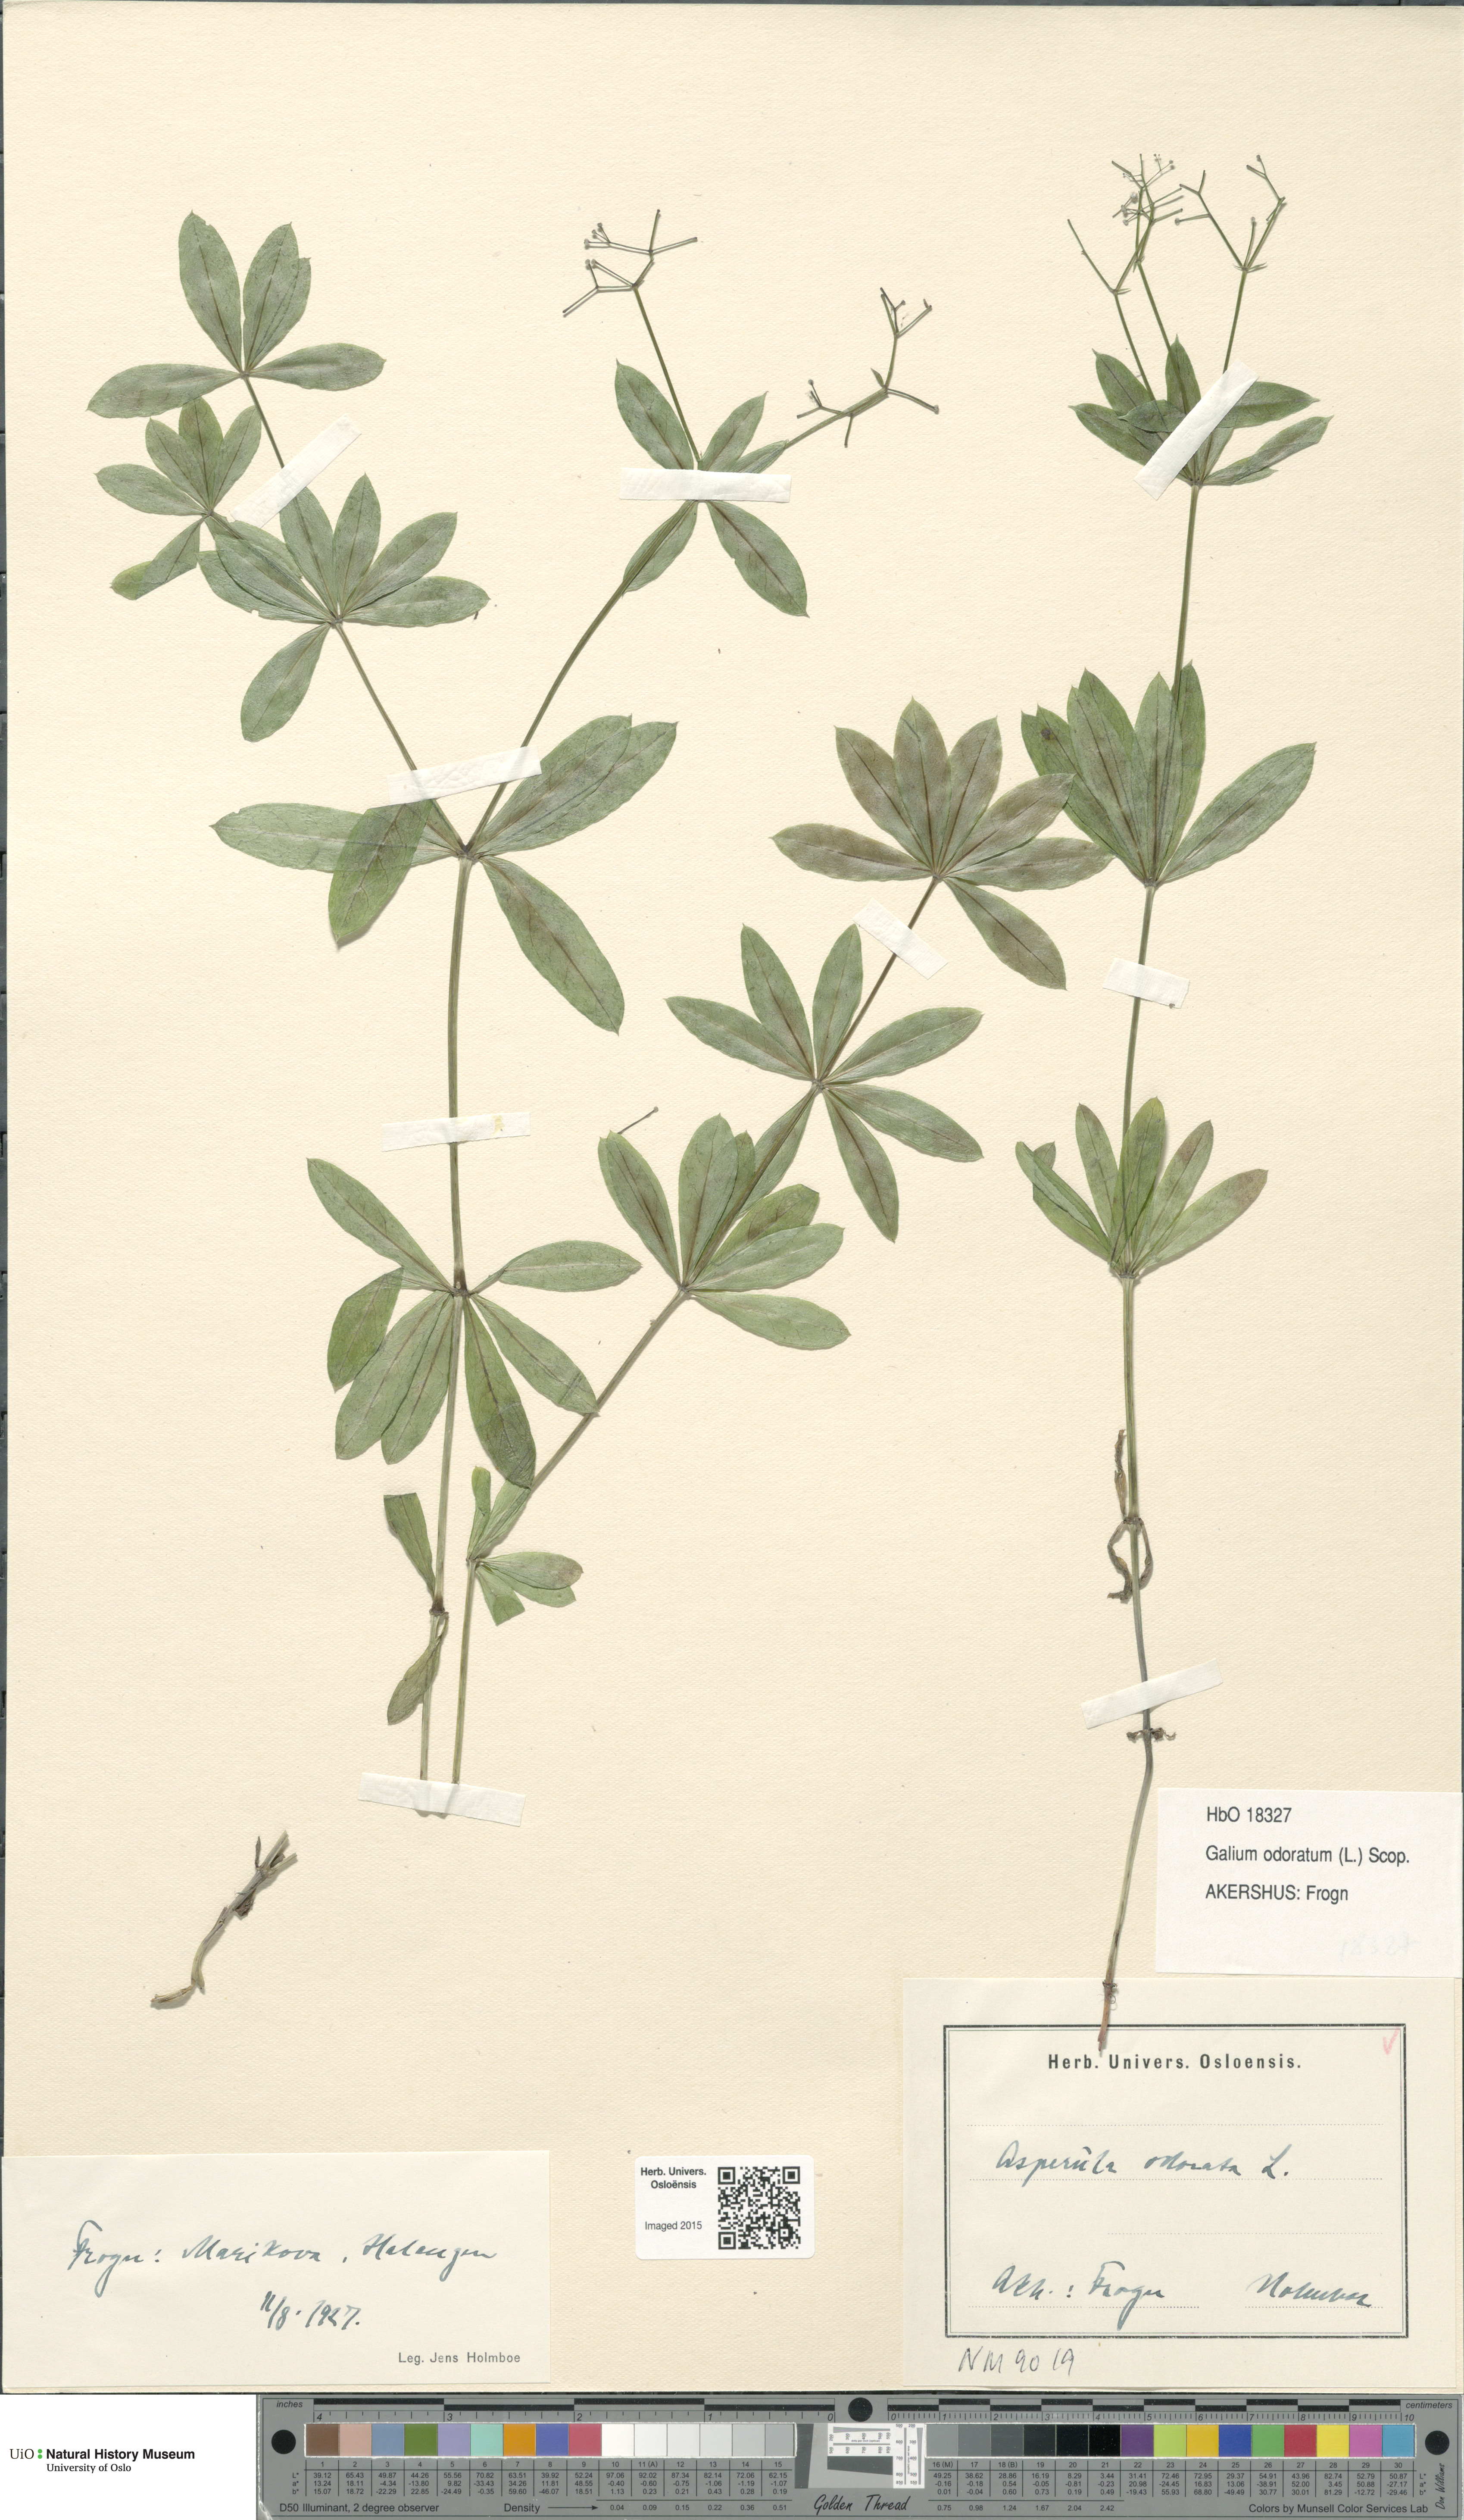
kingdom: Plantae
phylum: Tracheophyta
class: Magnoliopsida
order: Gentianales
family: Rubiaceae
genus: Galium
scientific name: Galium odoratum
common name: Sweet woodruff
